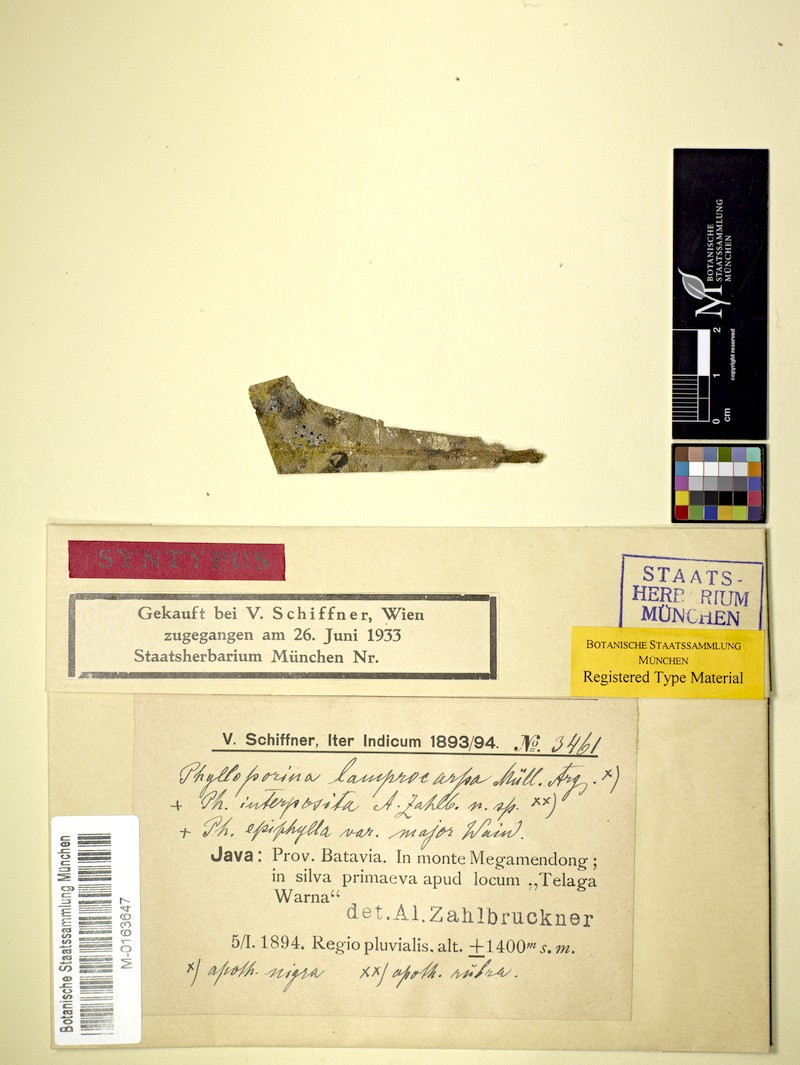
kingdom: Fungi
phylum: Ascomycota
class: Lecanoromycetes
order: Pertusariales
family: Pertusariaceae
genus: Phylloporina
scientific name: Phylloporina lamprocarpa
